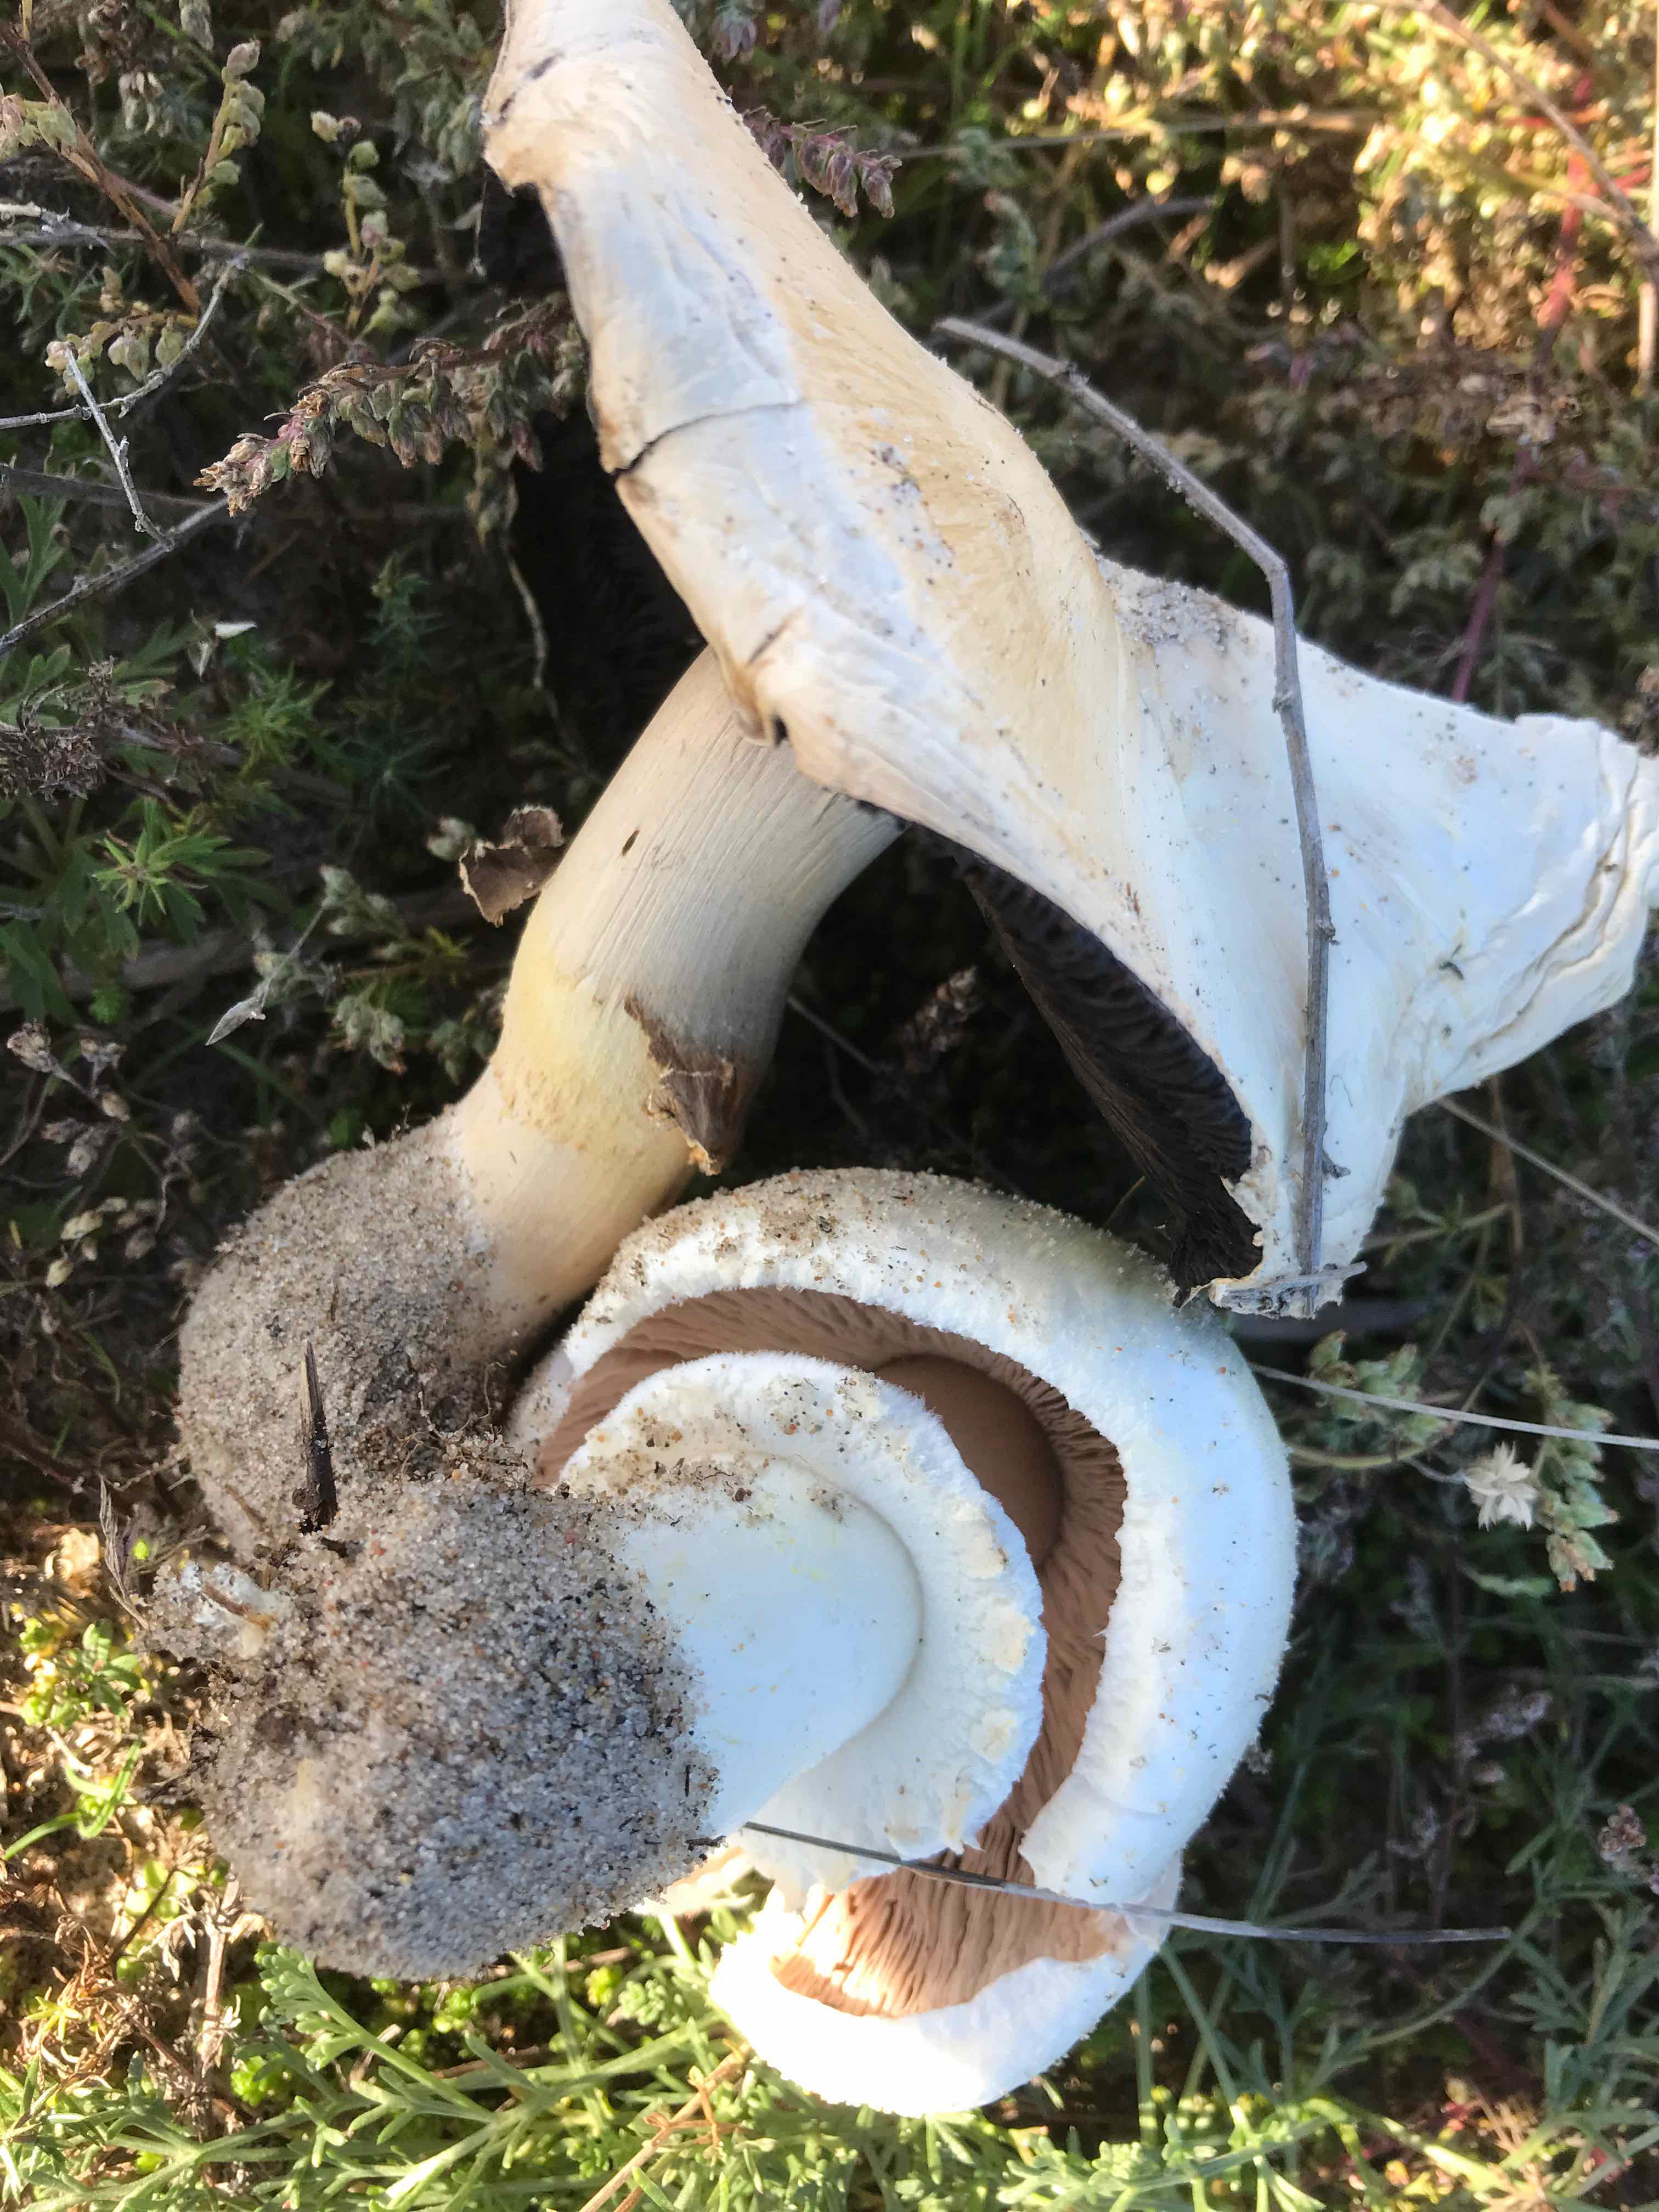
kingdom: Fungi
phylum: Basidiomycota
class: Agaricomycetes
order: Agaricales
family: Agaricaceae
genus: Agaricus
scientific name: Agaricus arvensis
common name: ager-champignon
